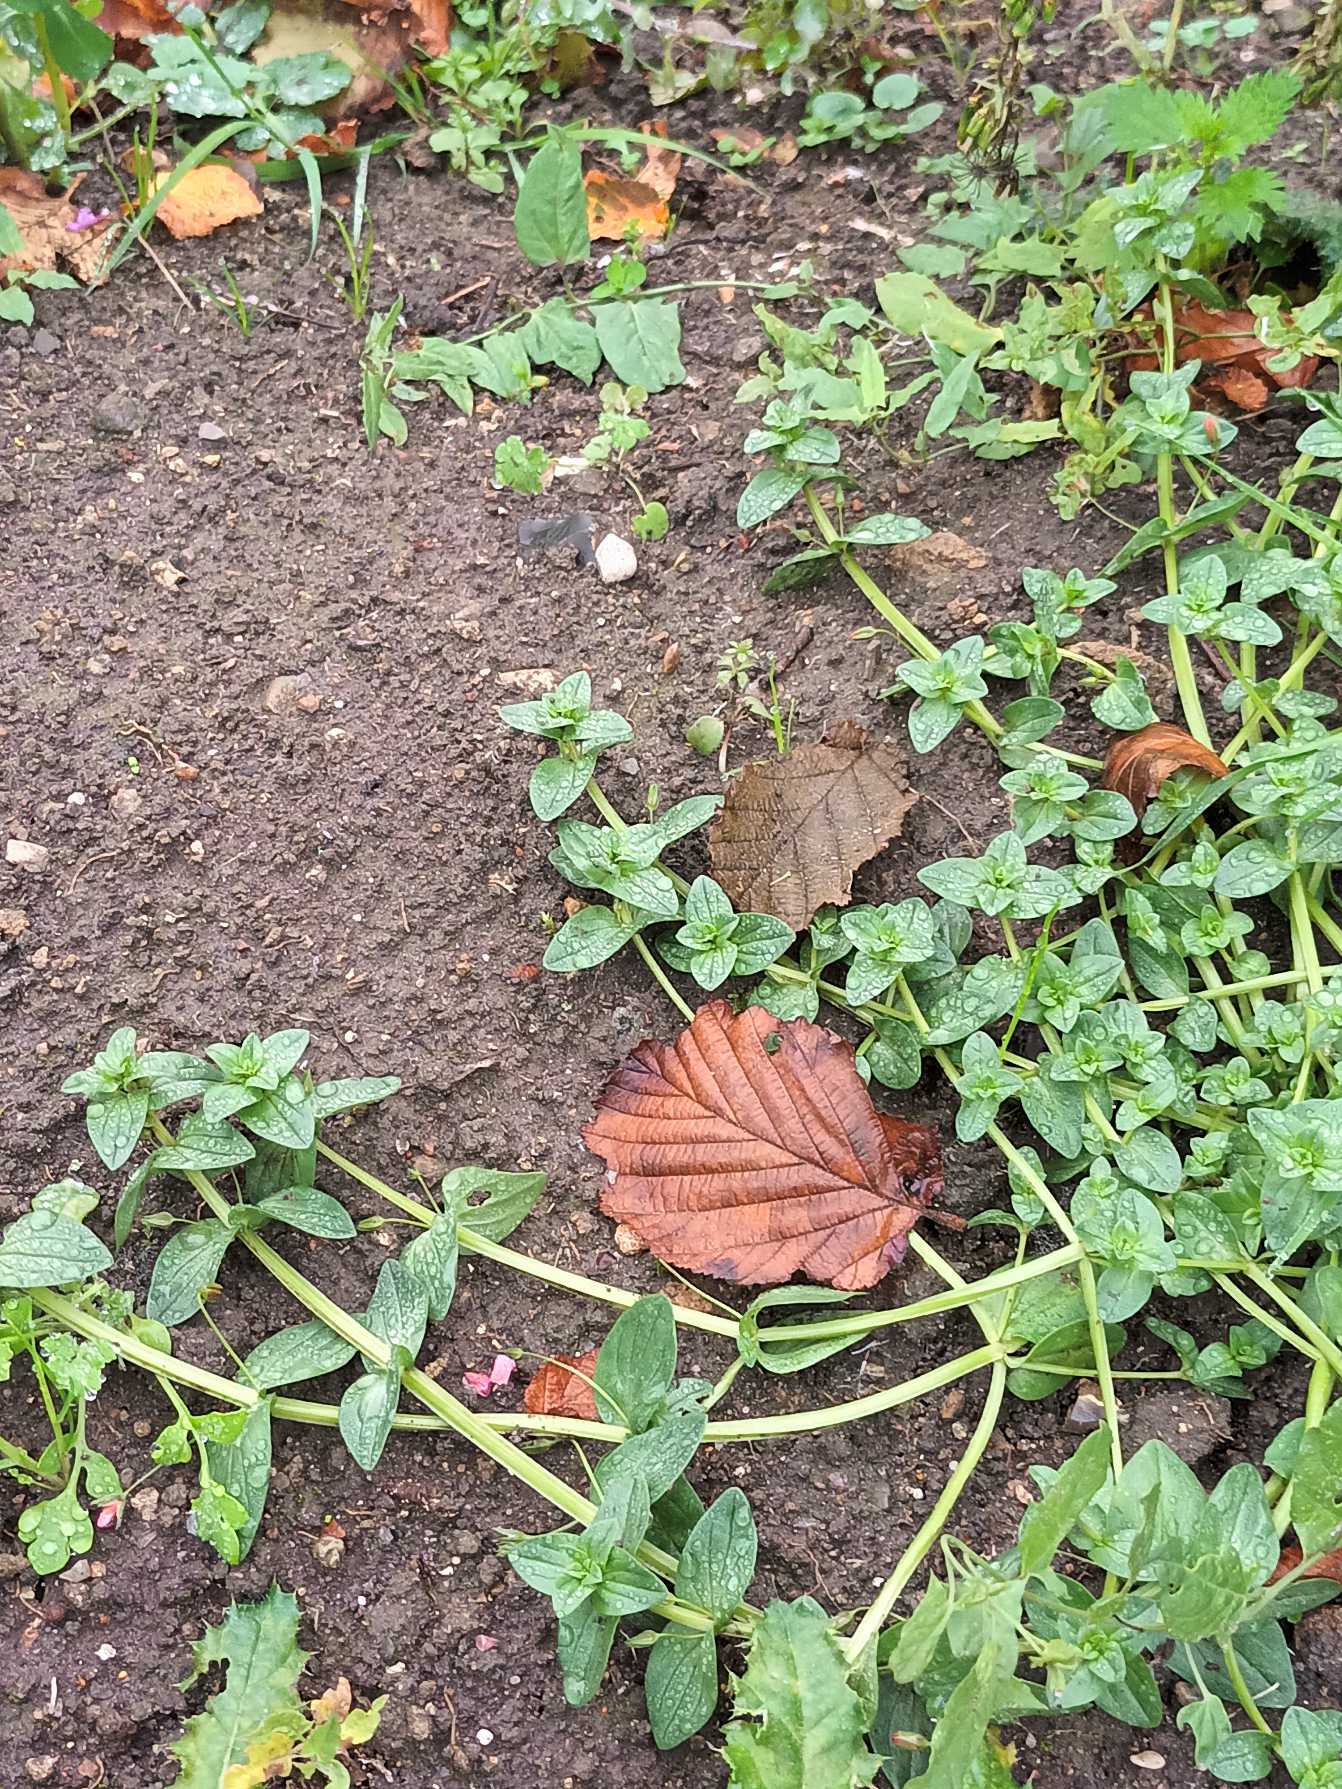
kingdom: Plantae
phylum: Tracheophyta
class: Magnoliopsida
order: Ericales
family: Primulaceae
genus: Lysimachia
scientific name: Lysimachia arvensis
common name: Rød arve
